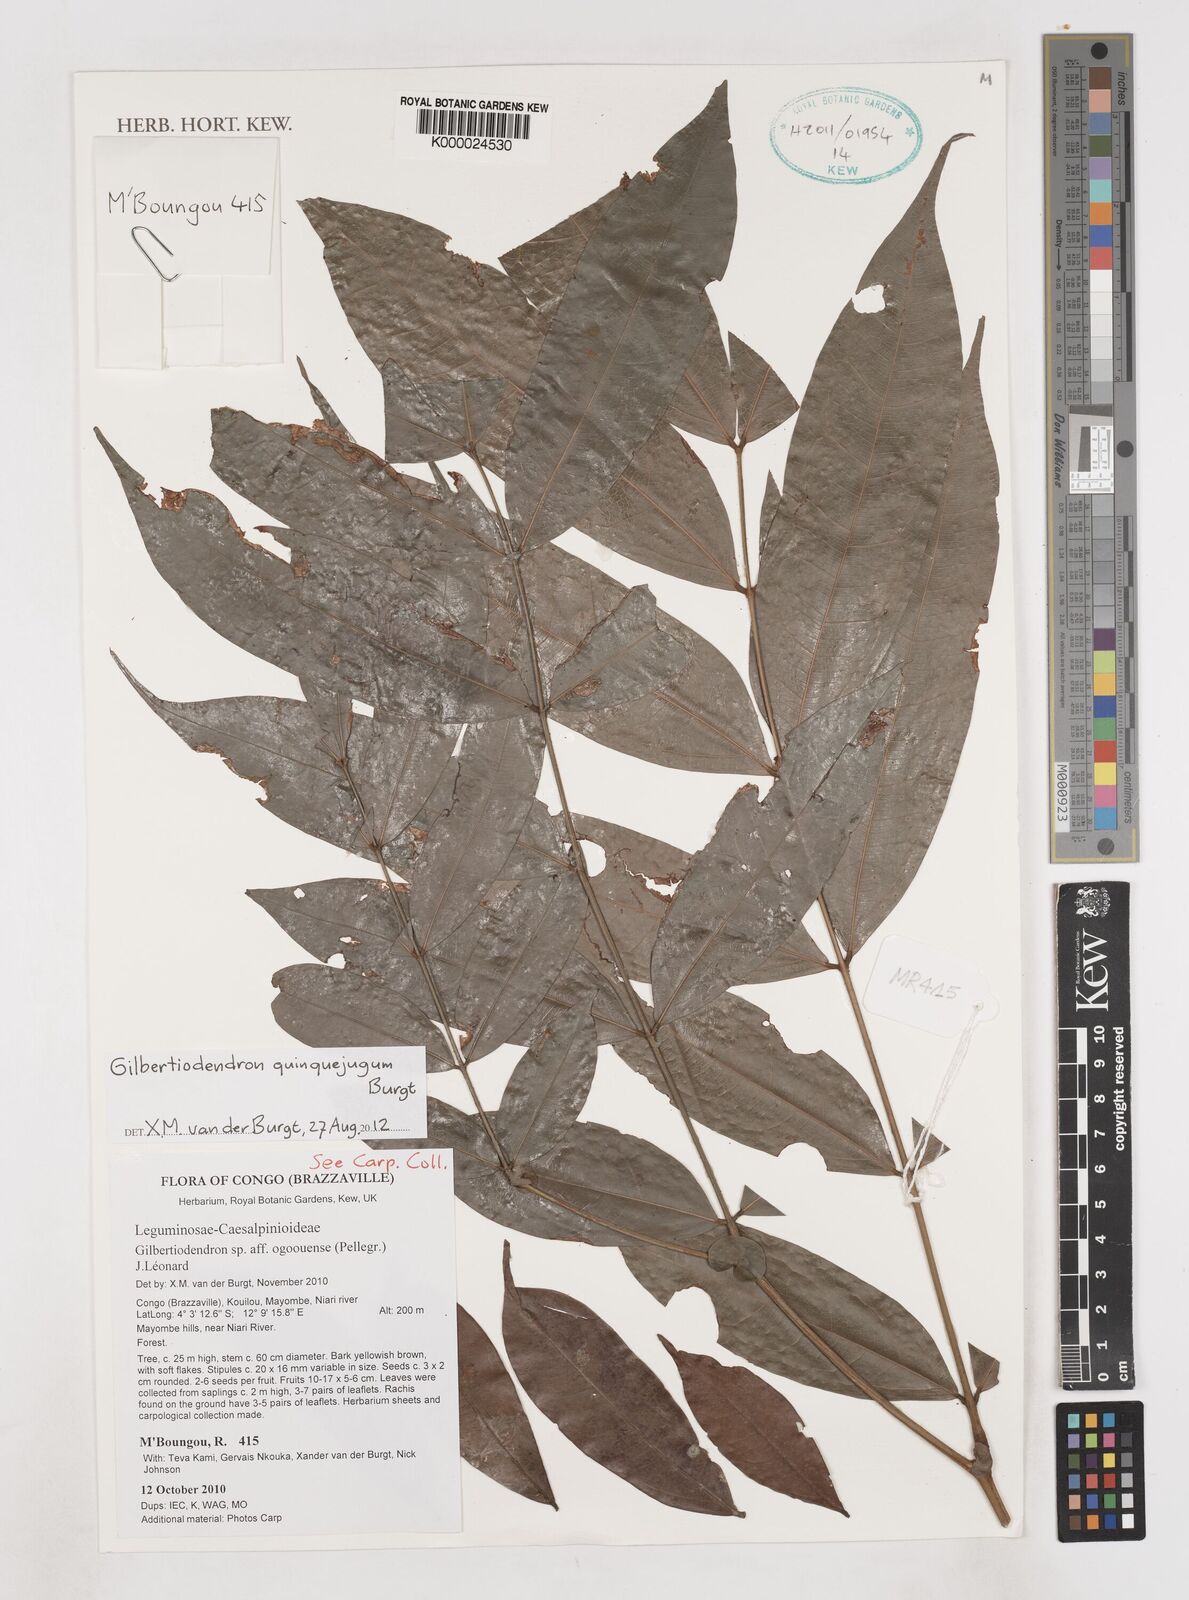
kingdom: Plantae
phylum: Tracheophyta
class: Magnoliopsida
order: Fabales
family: Fabaceae
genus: Gilbertiodendron
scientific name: Gilbertiodendron
